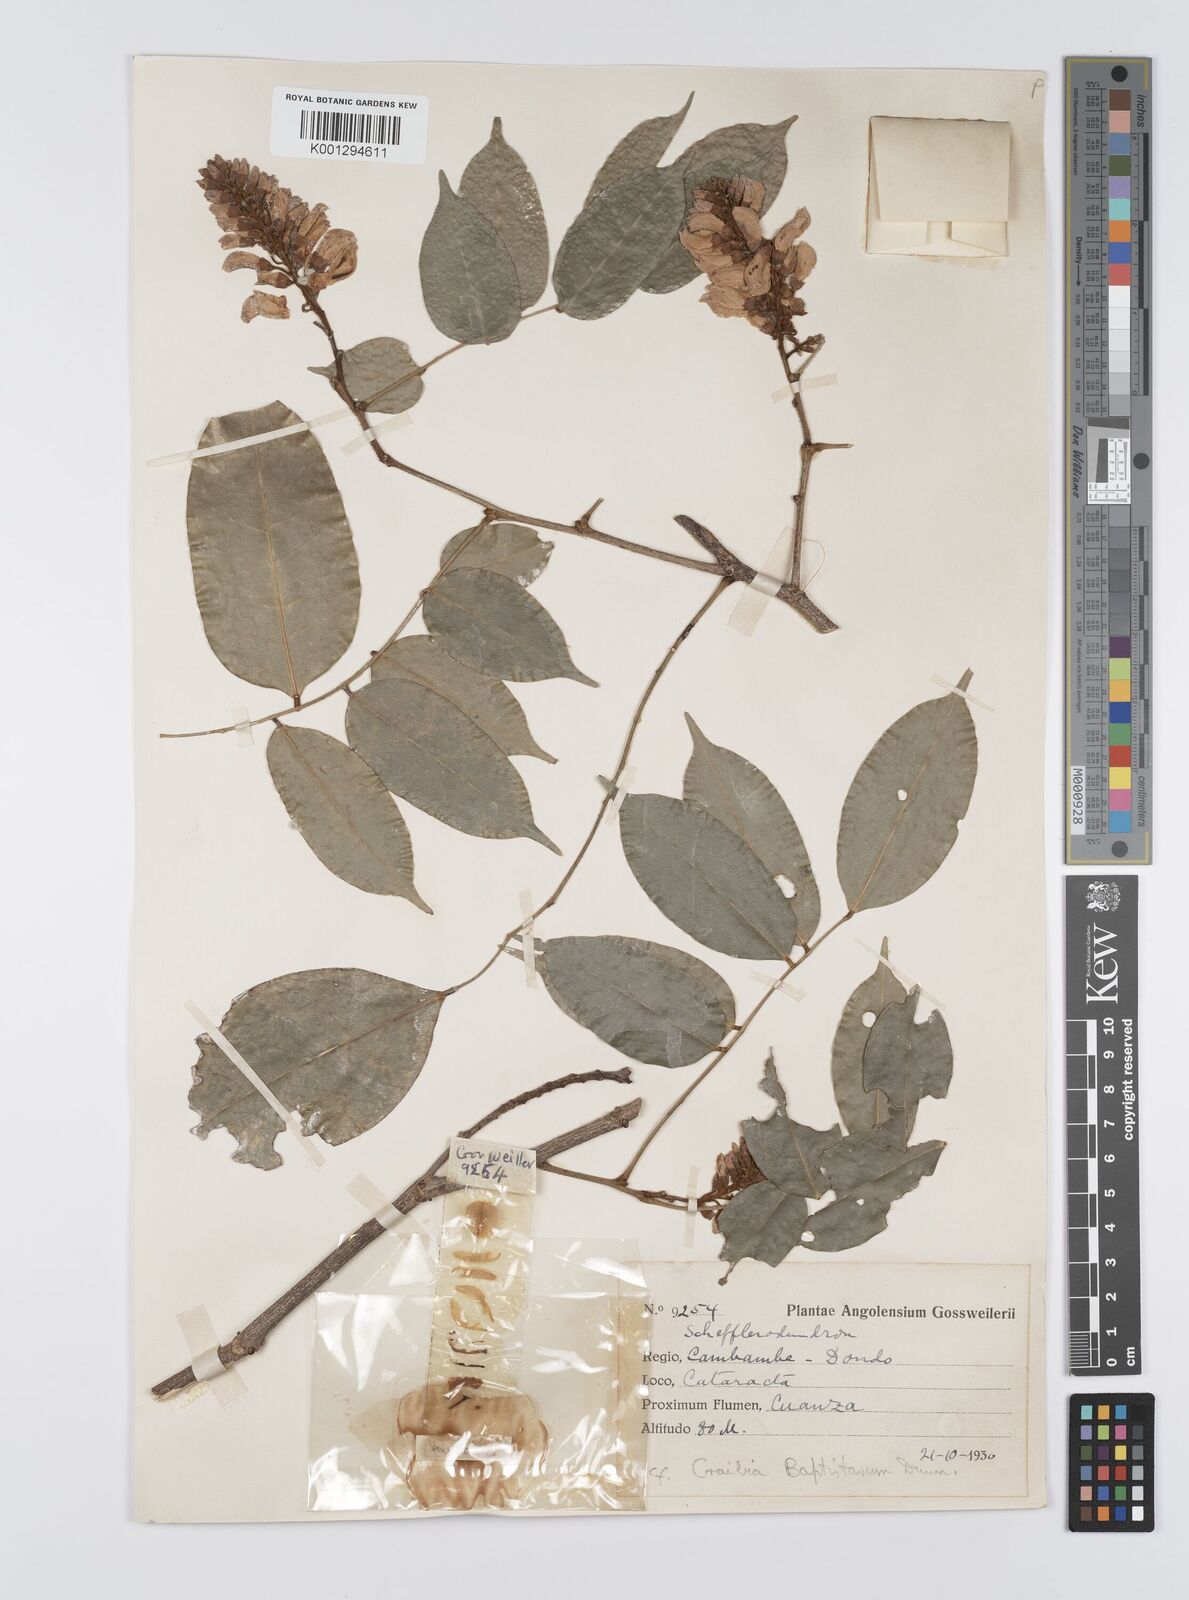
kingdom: Plantae
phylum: Tracheophyta
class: Magnoliopsida
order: Fabales
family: Fabaceae
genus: Craibia
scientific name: Craibia brevicaudata
